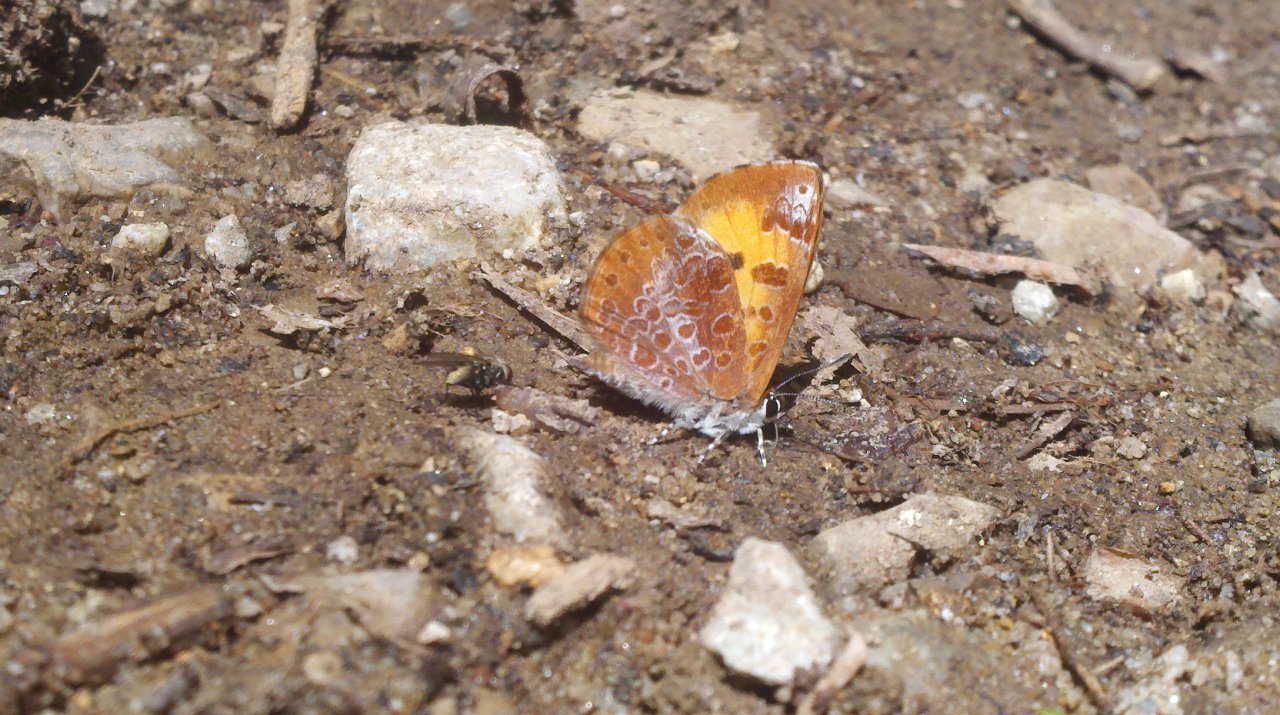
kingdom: Animalia
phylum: Arthropoda
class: Insecta
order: Lepidoptera
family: Lycaenidae
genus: Feniseca
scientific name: Feniseca tarquinius
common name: Harvester
